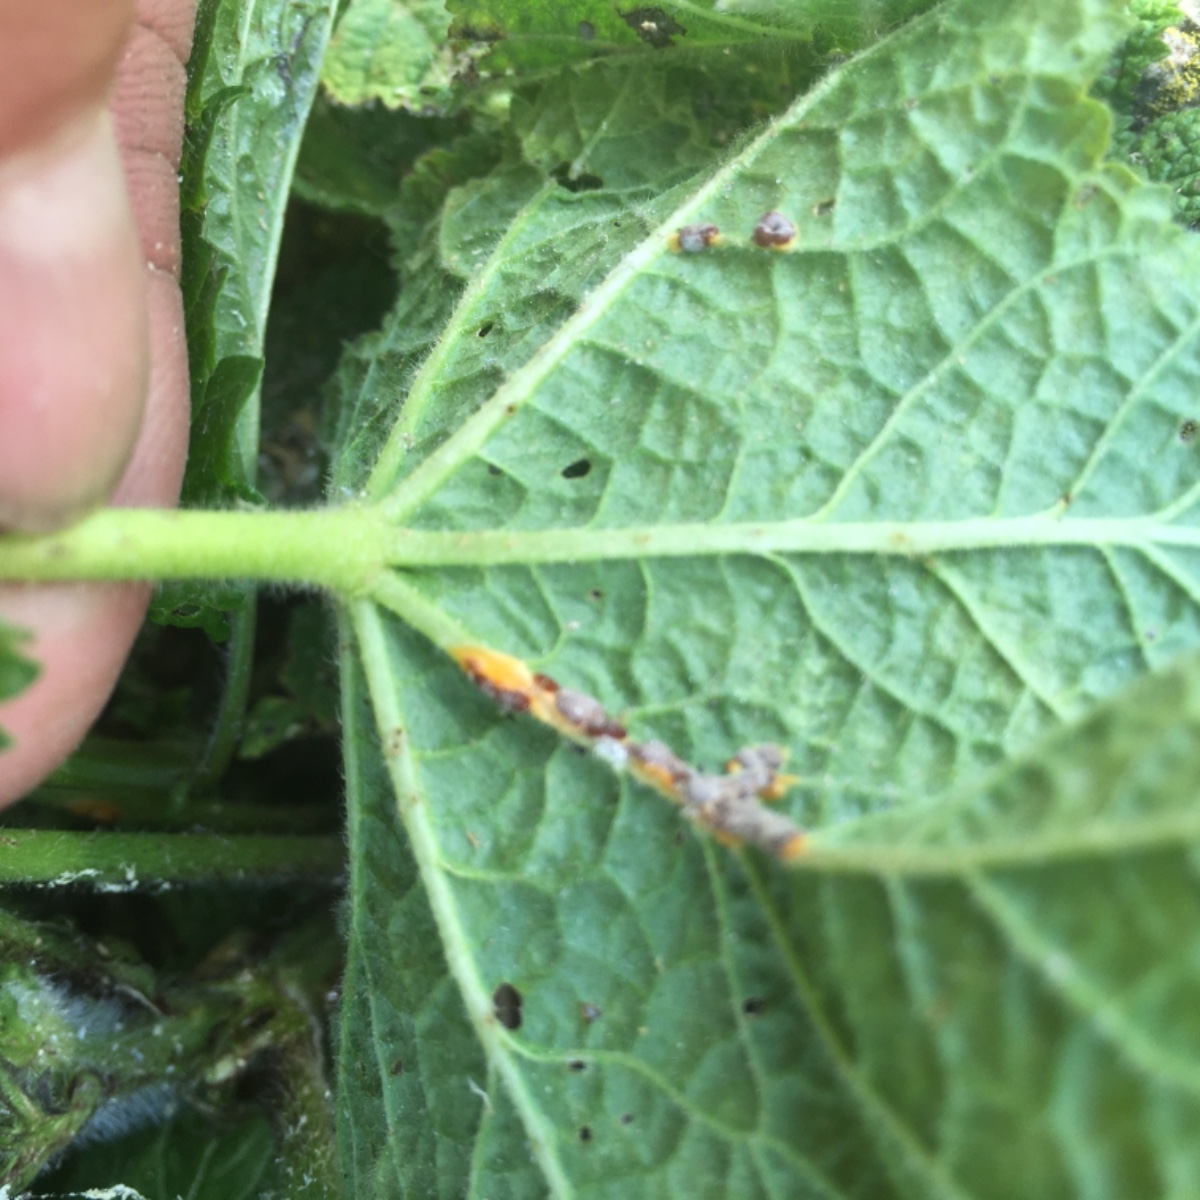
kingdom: Fungi
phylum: Basidiomycota
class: Pucciniomycetes
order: Pucciniales
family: Pucciniaceae
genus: Puccinia
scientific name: Puccinia malvacearum
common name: stokrose-tvecellerust
